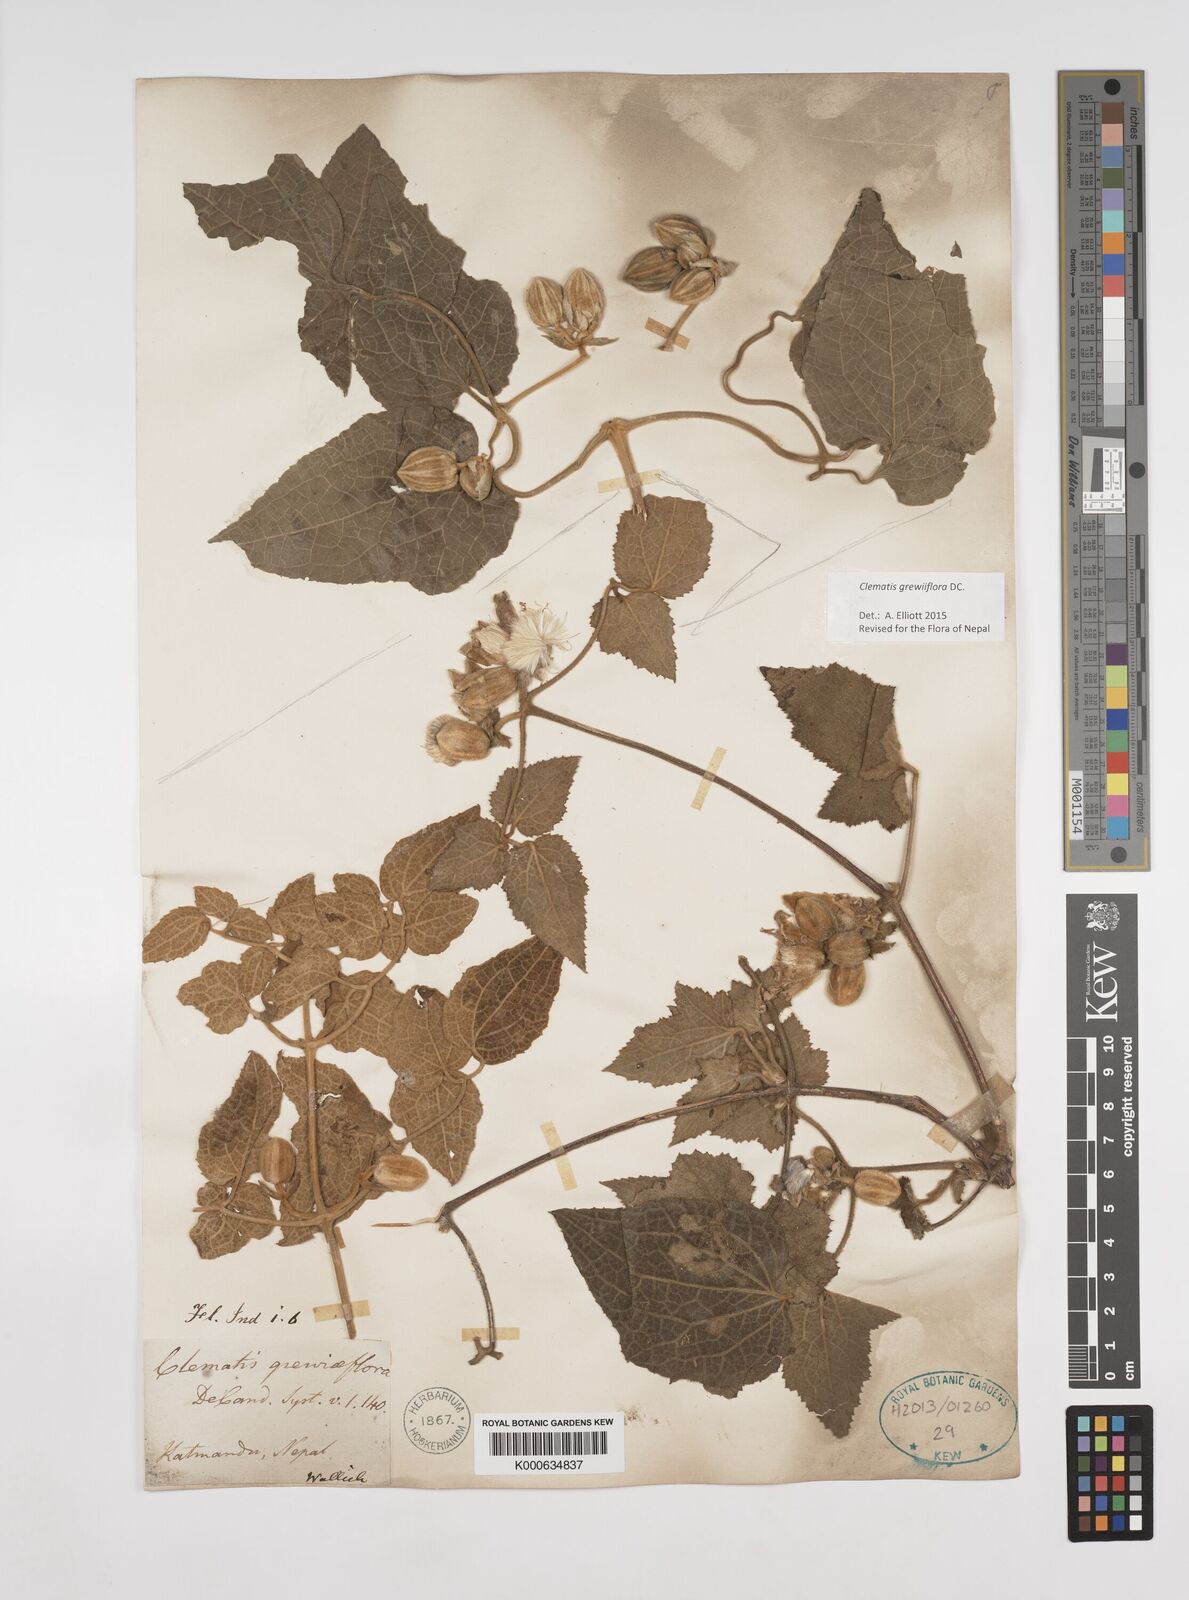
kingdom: Plantae
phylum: Tracheophyta
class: Magnoliopsida
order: Ranunculales
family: Ranunculaceae
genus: Clematis
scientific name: Clematis grewiiflora
